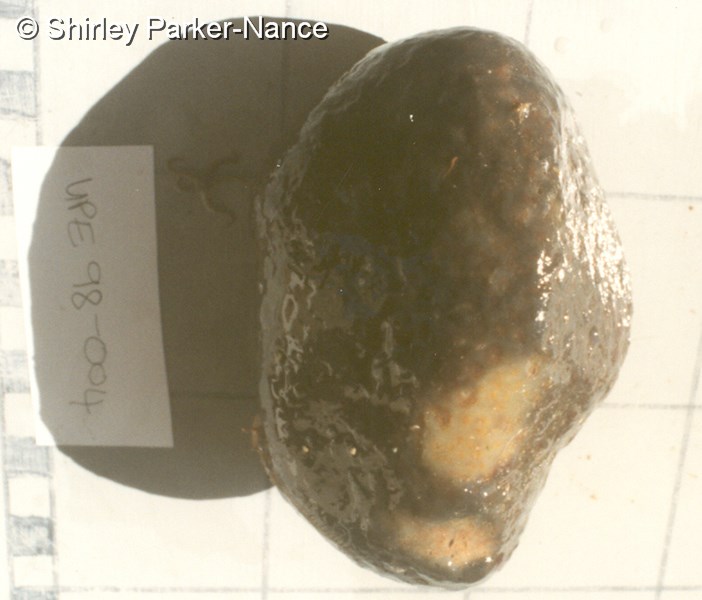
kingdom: Animalia
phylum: Chordata
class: Ascidiacea
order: Aplousobranchia
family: Polyclinidae
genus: Synoicum
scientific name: Synoicum
